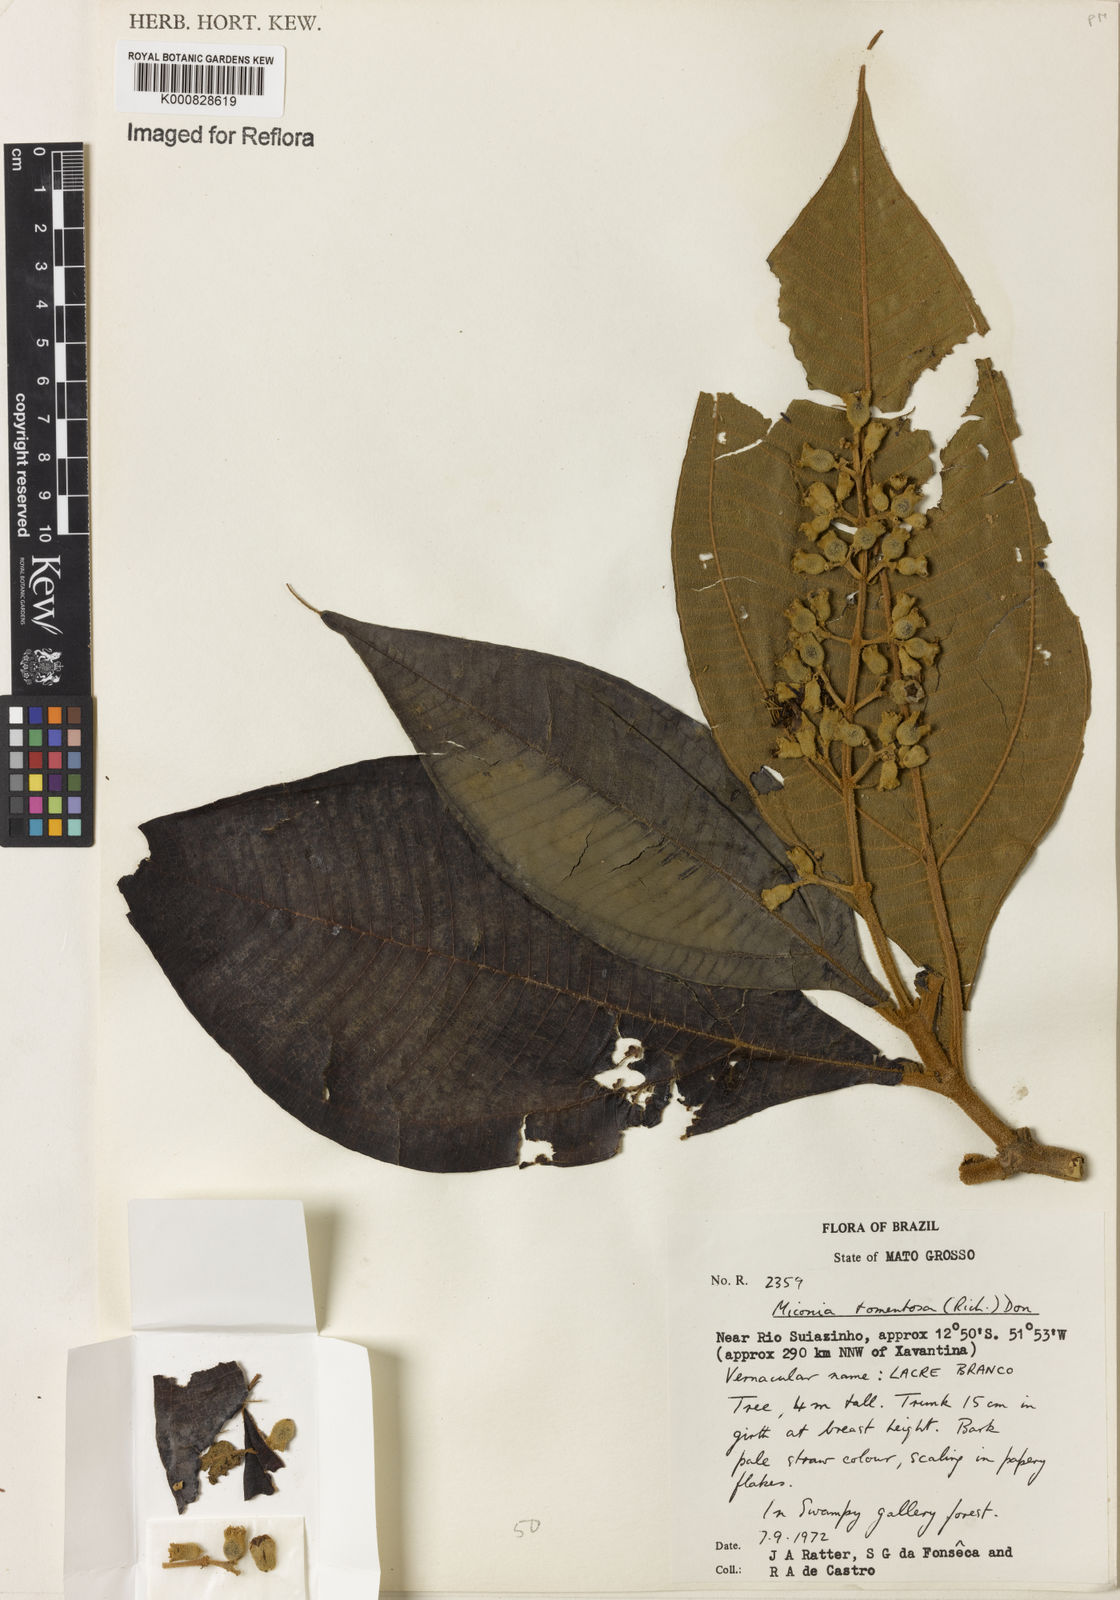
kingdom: Plantae
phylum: Tracheophyta
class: Magnoliopsida
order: Myrtales
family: Melastomataceae
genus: Miconia
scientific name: Miconia tomentosa
